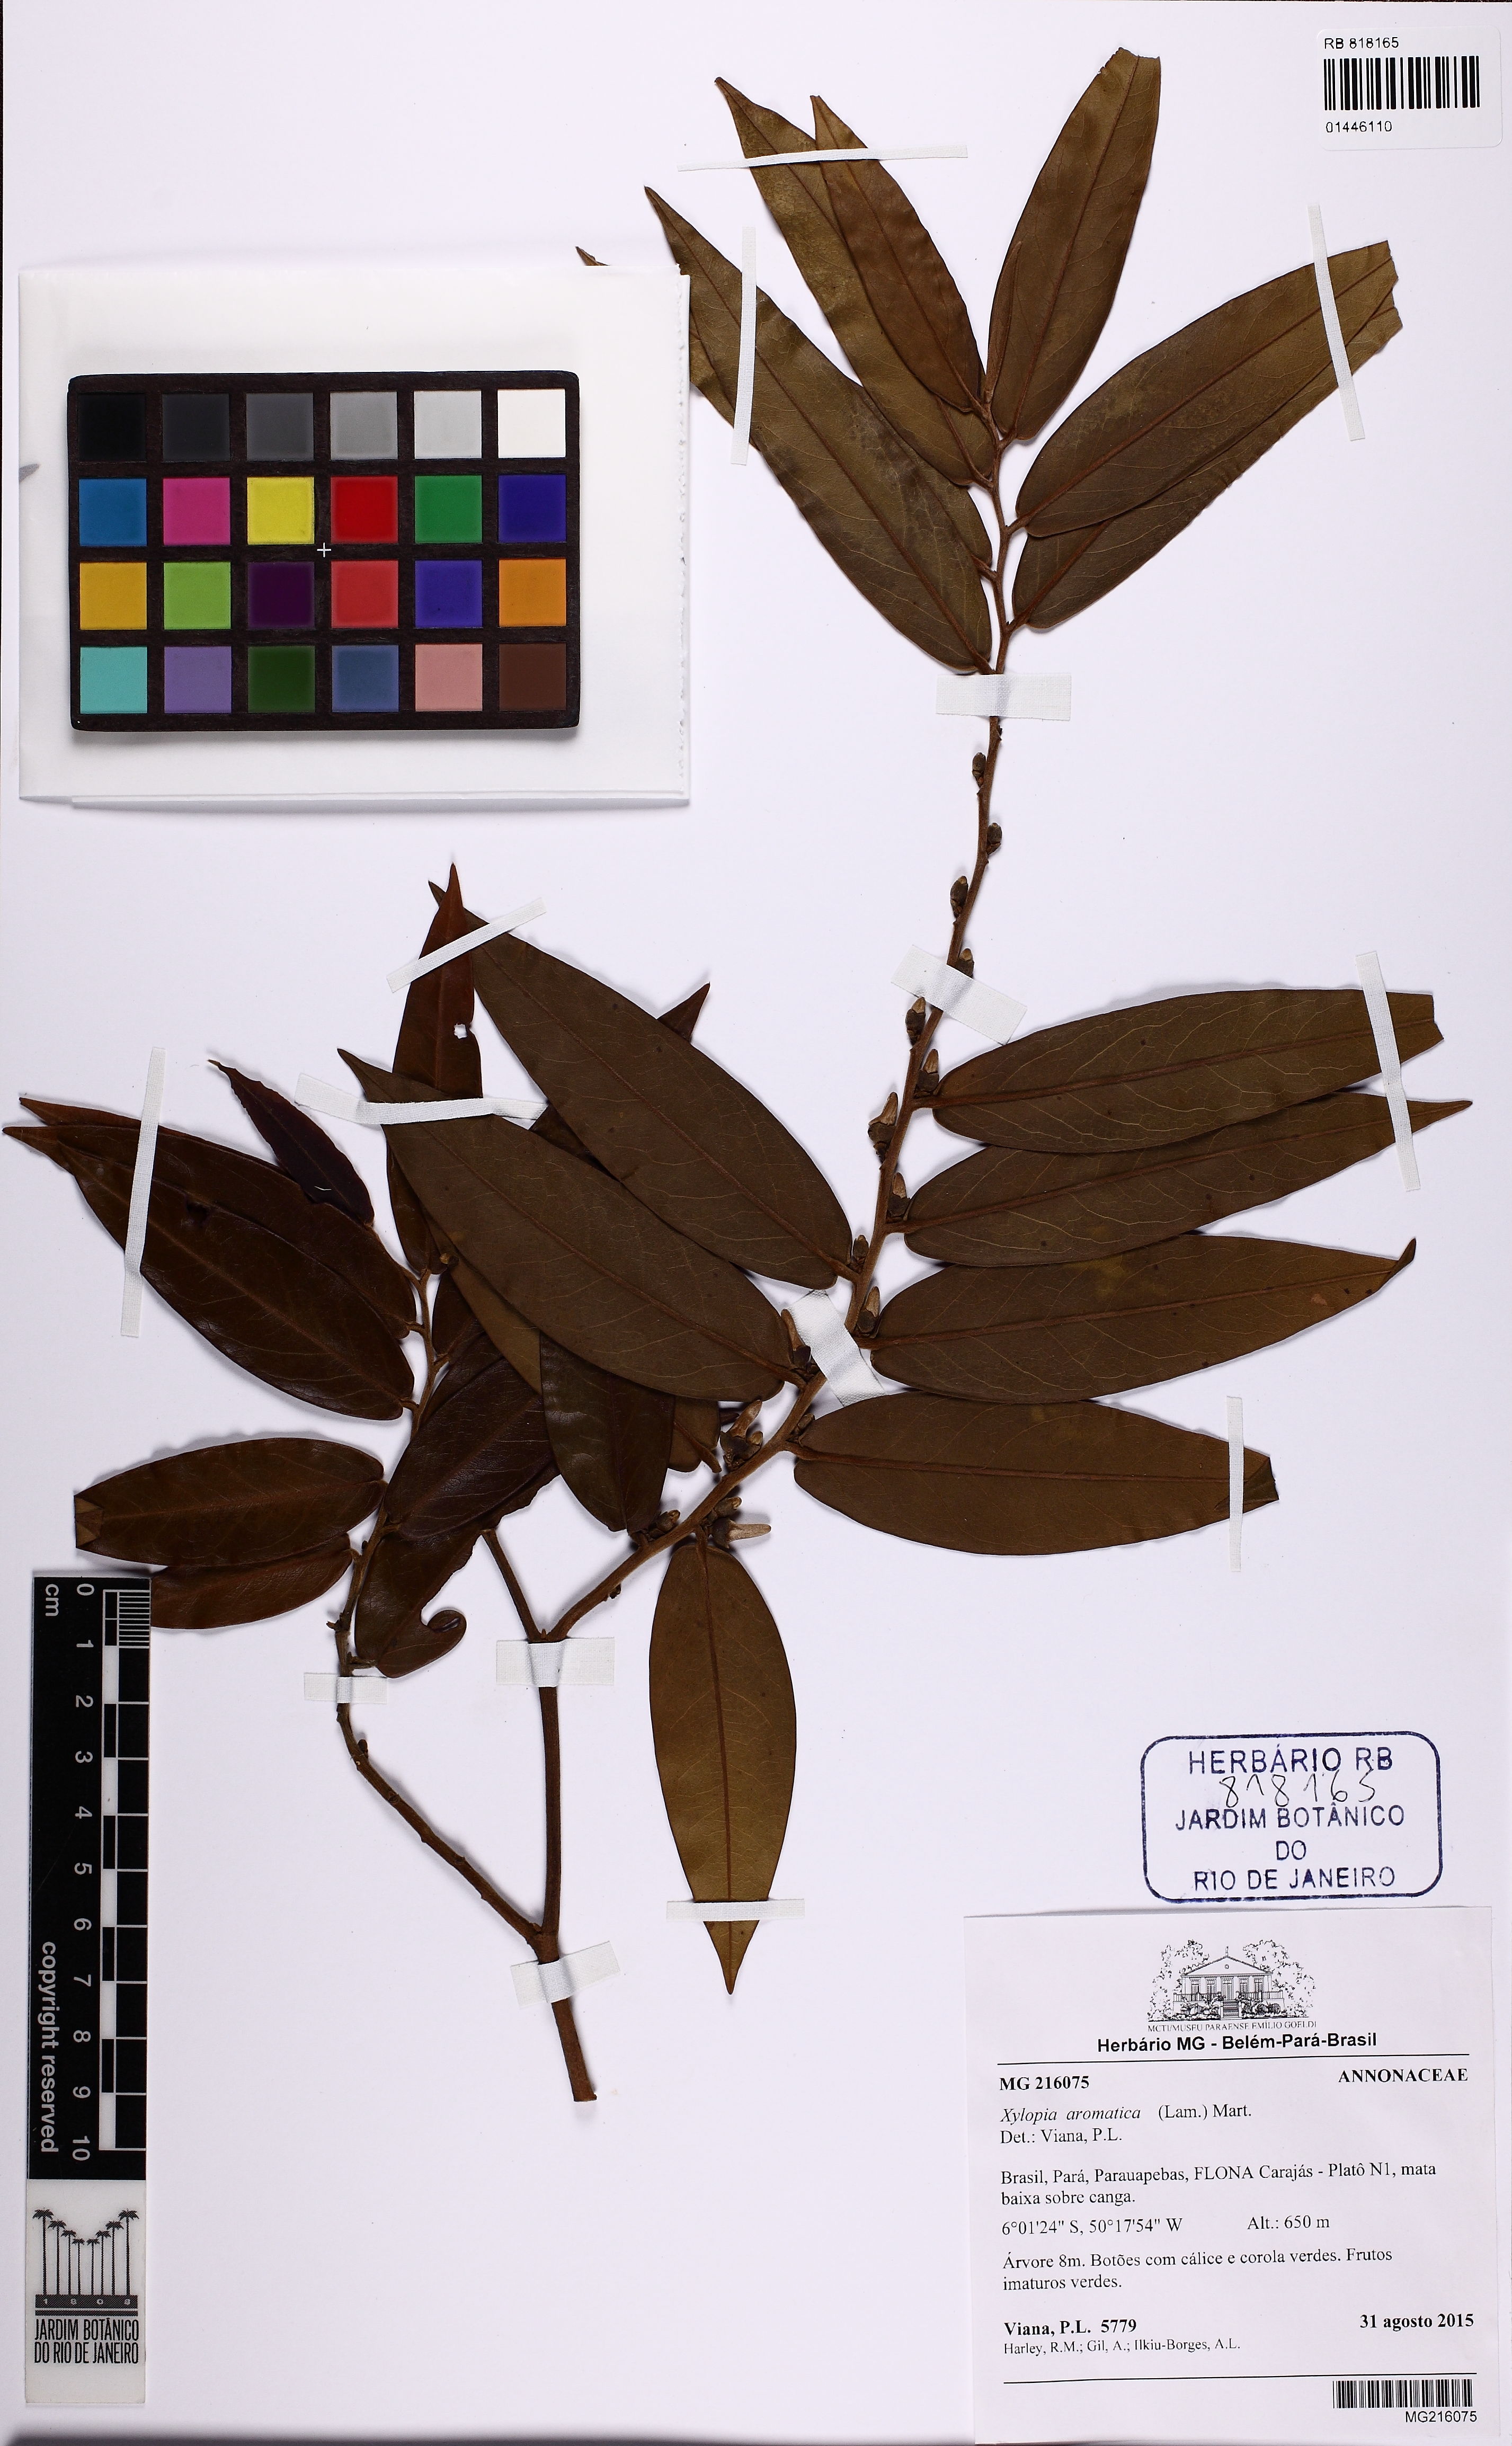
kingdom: Plantae
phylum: Tracheophyta
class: Magnoliopsida
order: Magnoliales
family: Annonaceae
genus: Xylopia
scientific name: Xylopia aromatica
